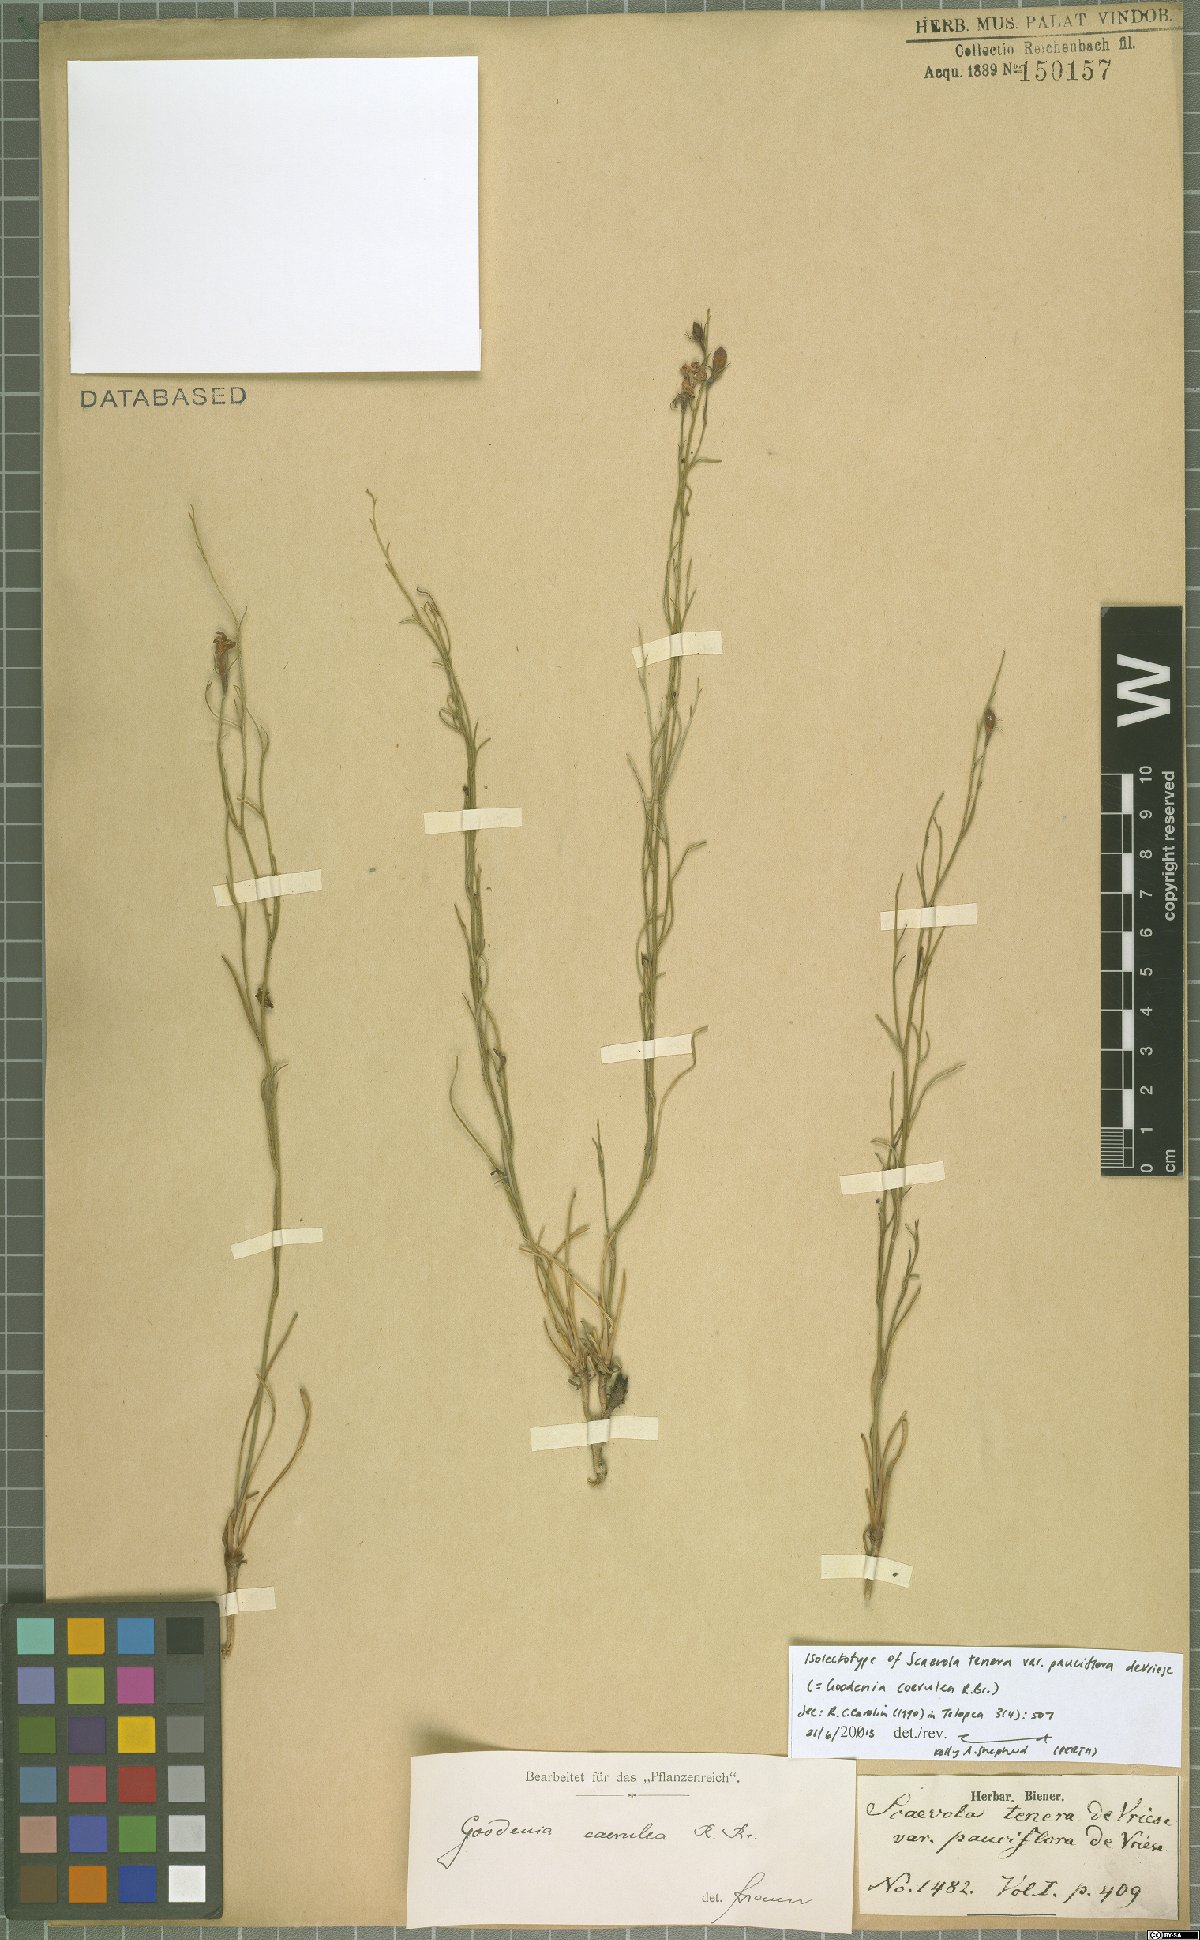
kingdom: Plantae
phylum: Tracheophyta
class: Magnoliopsida
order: Asterales
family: Goodeniaceae
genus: Goodenia
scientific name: Goodenia coerulea
